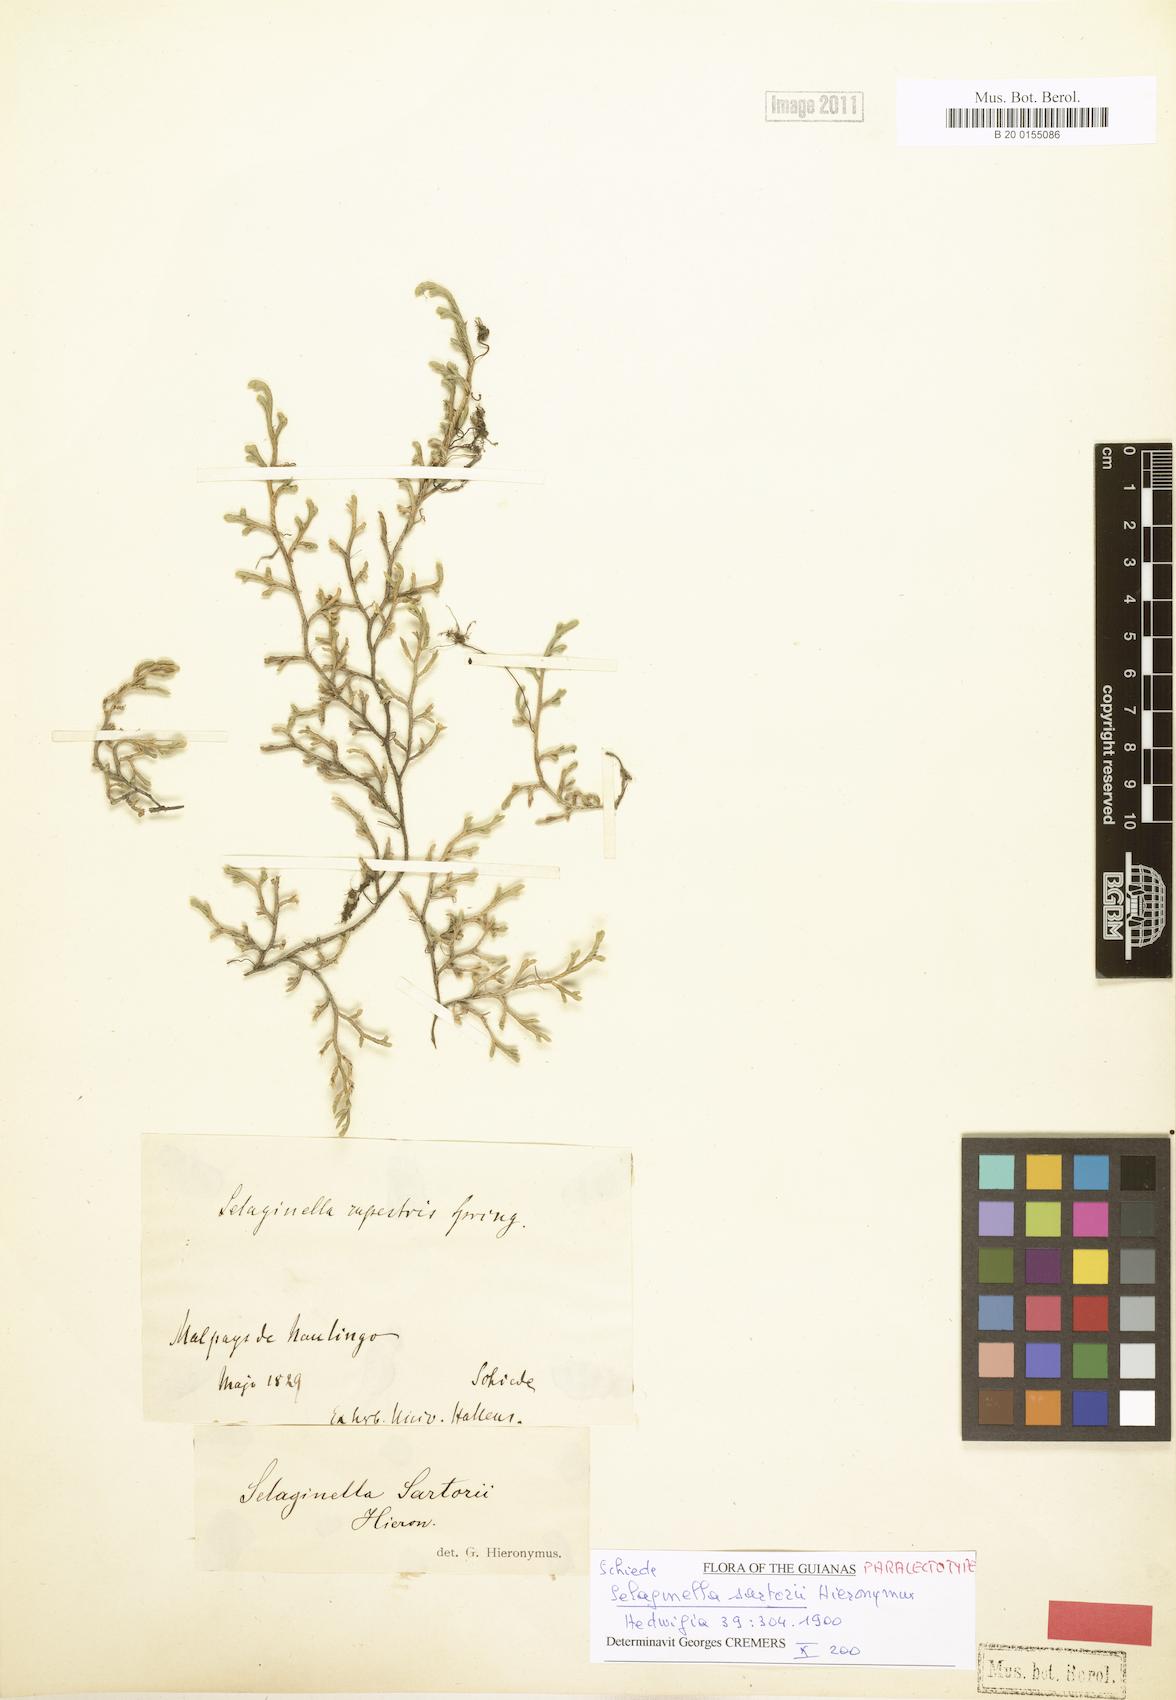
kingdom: Plantae
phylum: Tracheophyta
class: Lycopodiopsida
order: Selaginellales
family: Selaginellaceae
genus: Selaginella
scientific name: Selaginella sartorii
